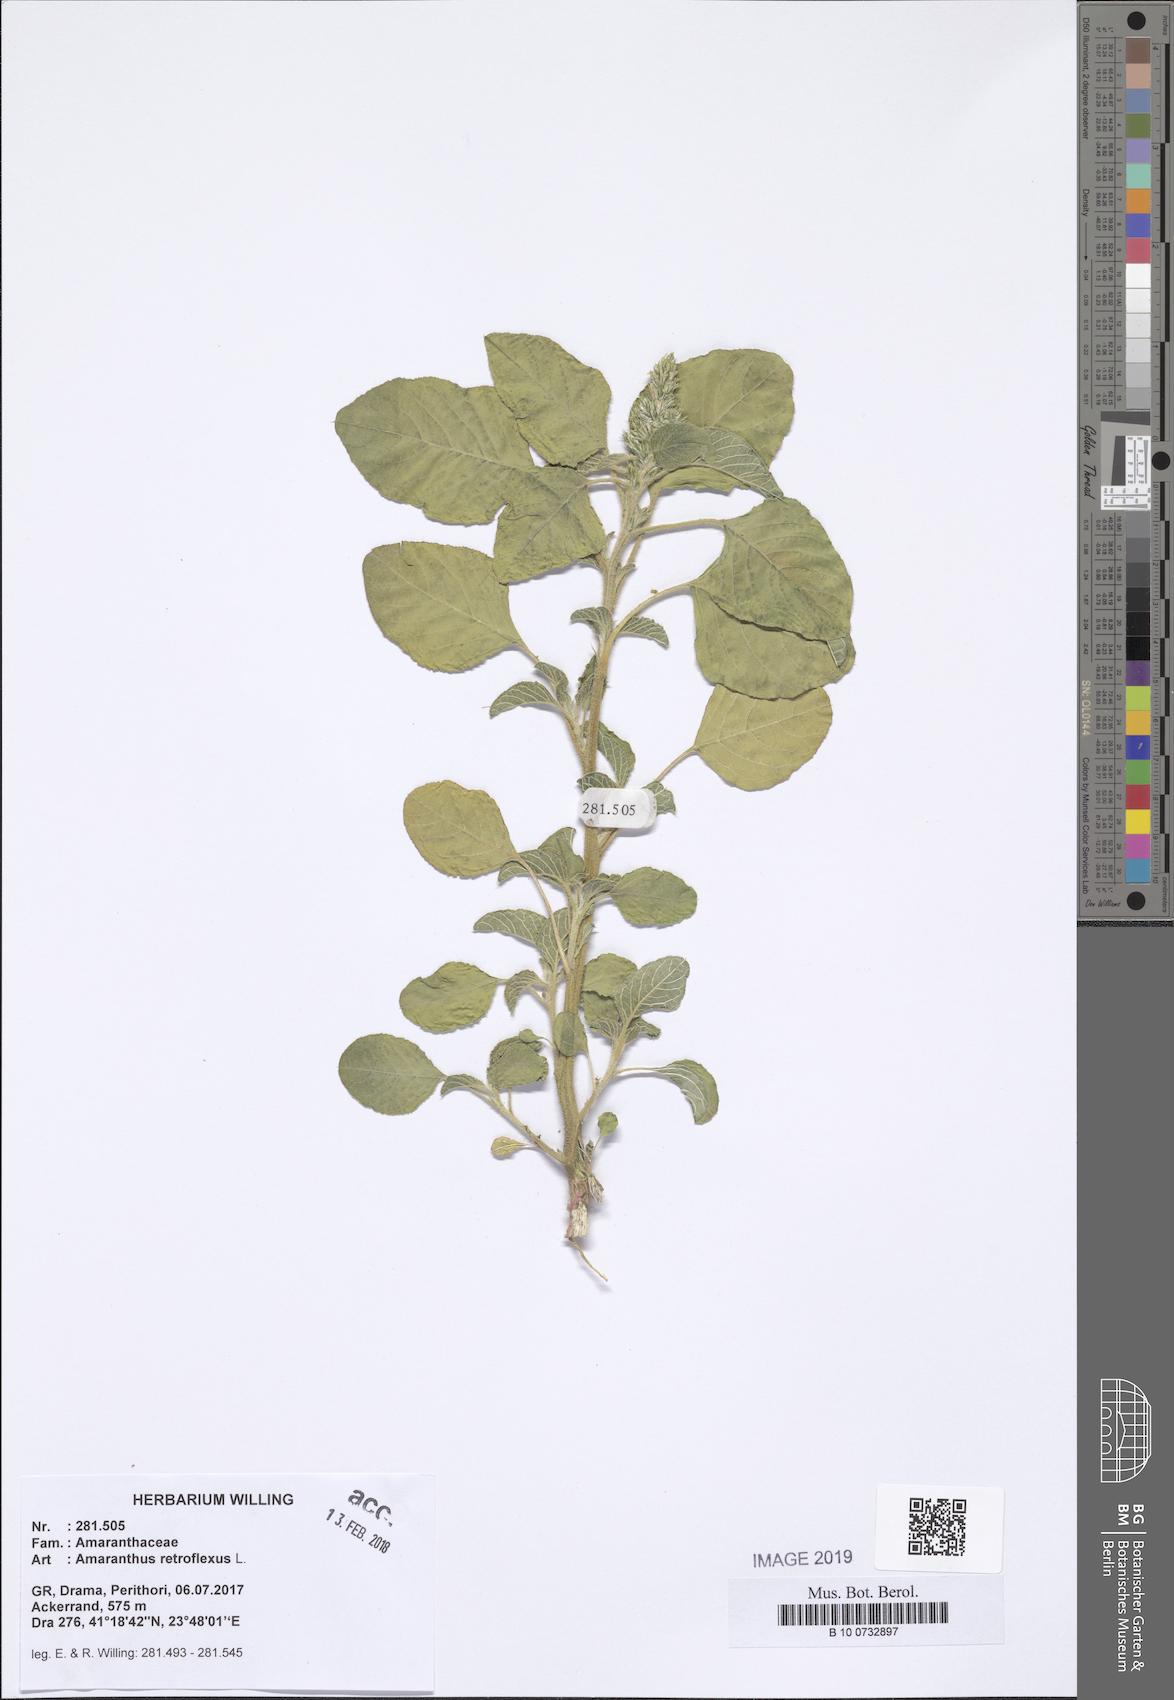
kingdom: Plantae
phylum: Tracheophyta
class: Magnoliopsida
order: Caryophyllales
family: Amaranthaceae
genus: Amaranthus
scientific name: Amaranthus retroflexus
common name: Redroot amaranth
